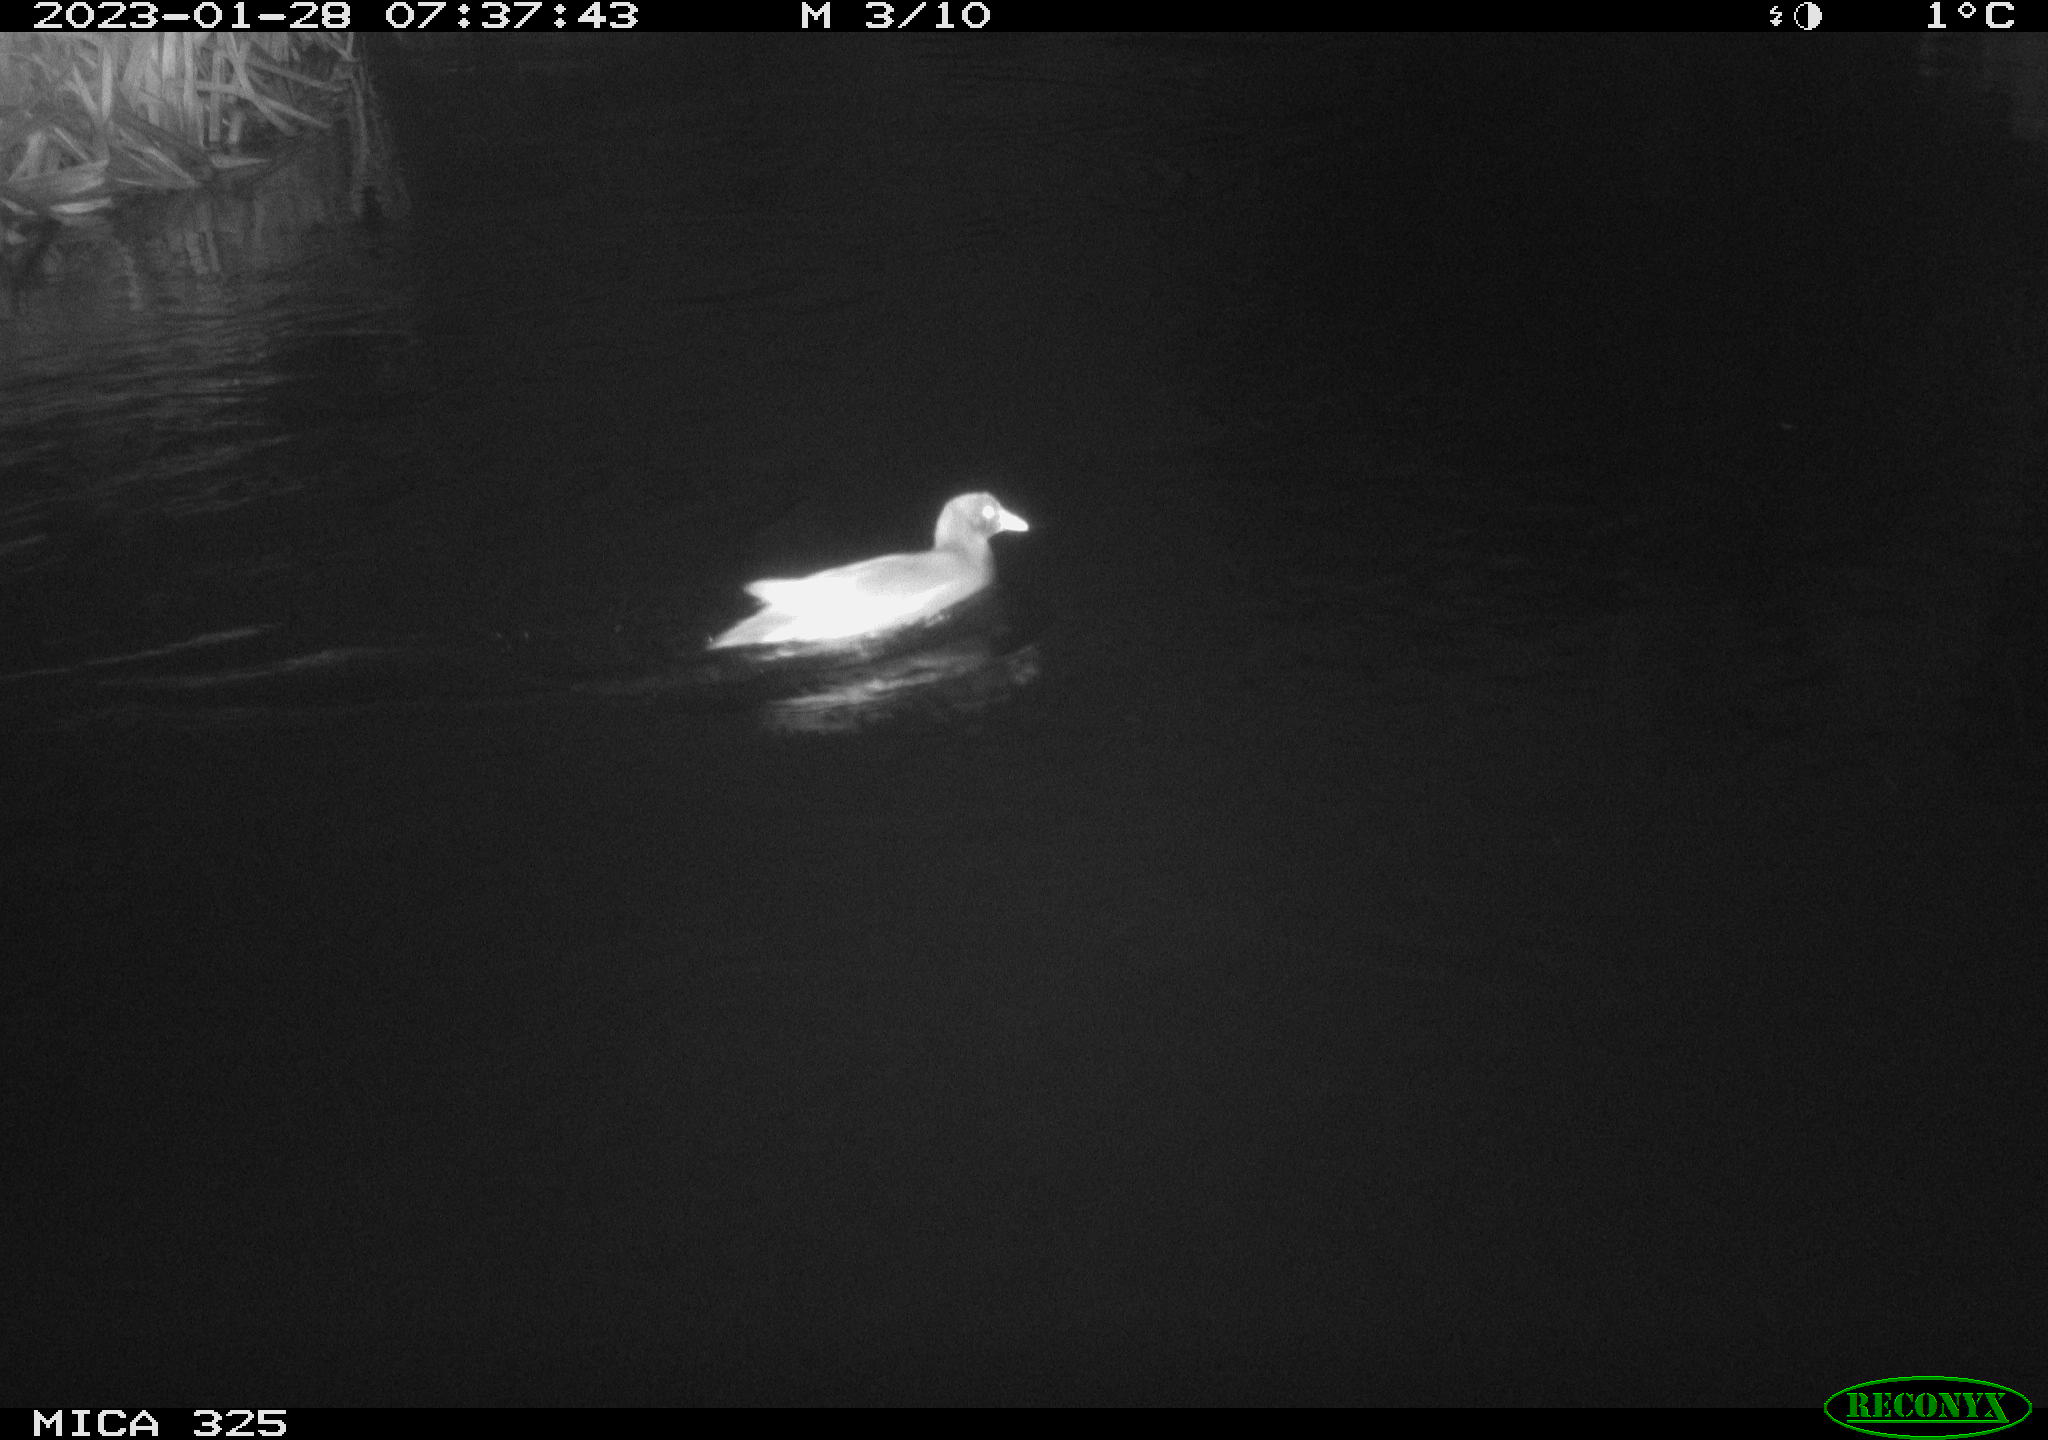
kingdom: Animalia
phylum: Chordata
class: Aves
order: Gruiformes
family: Rallidae
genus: Gallinula
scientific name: Gallinula chloropus
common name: Common moorhen
